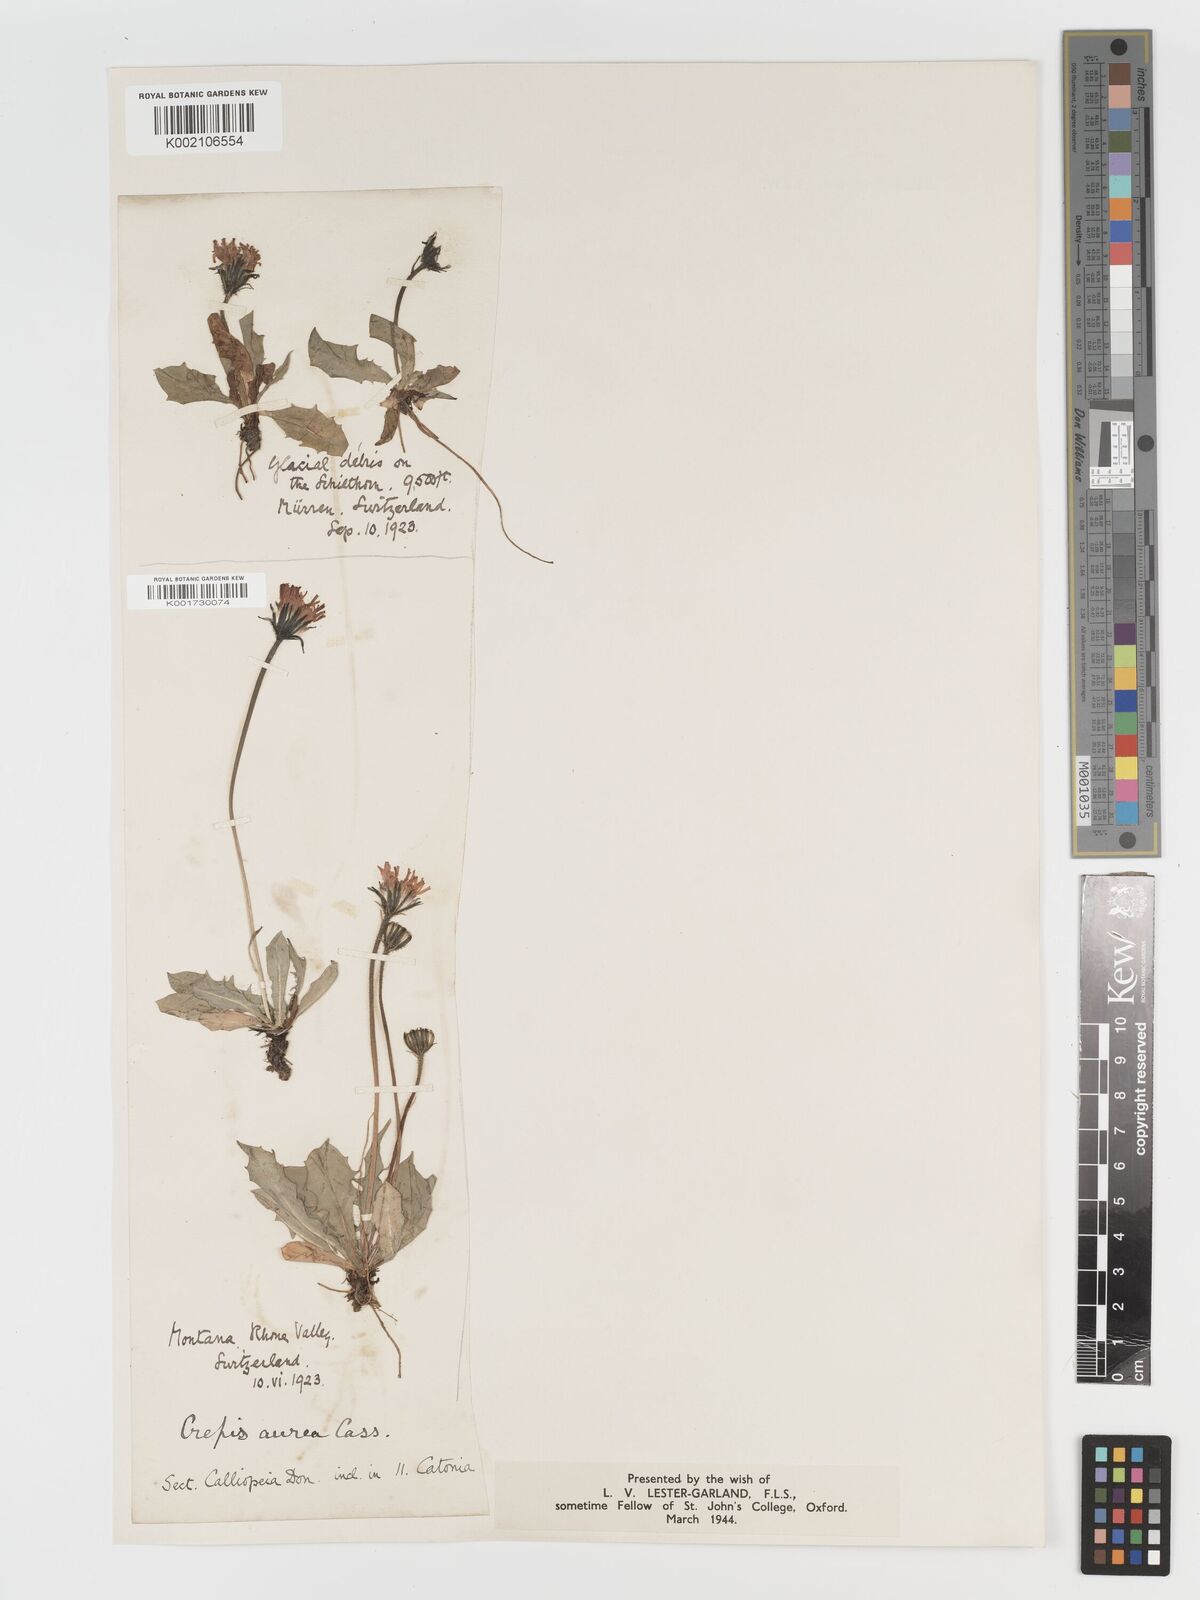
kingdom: Plantae
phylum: Tracheophyta
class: Magnoliopsida
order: Asterales
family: Asteraceae
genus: Crepis
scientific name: Crepis aurea
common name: Golden hawk's-beard
